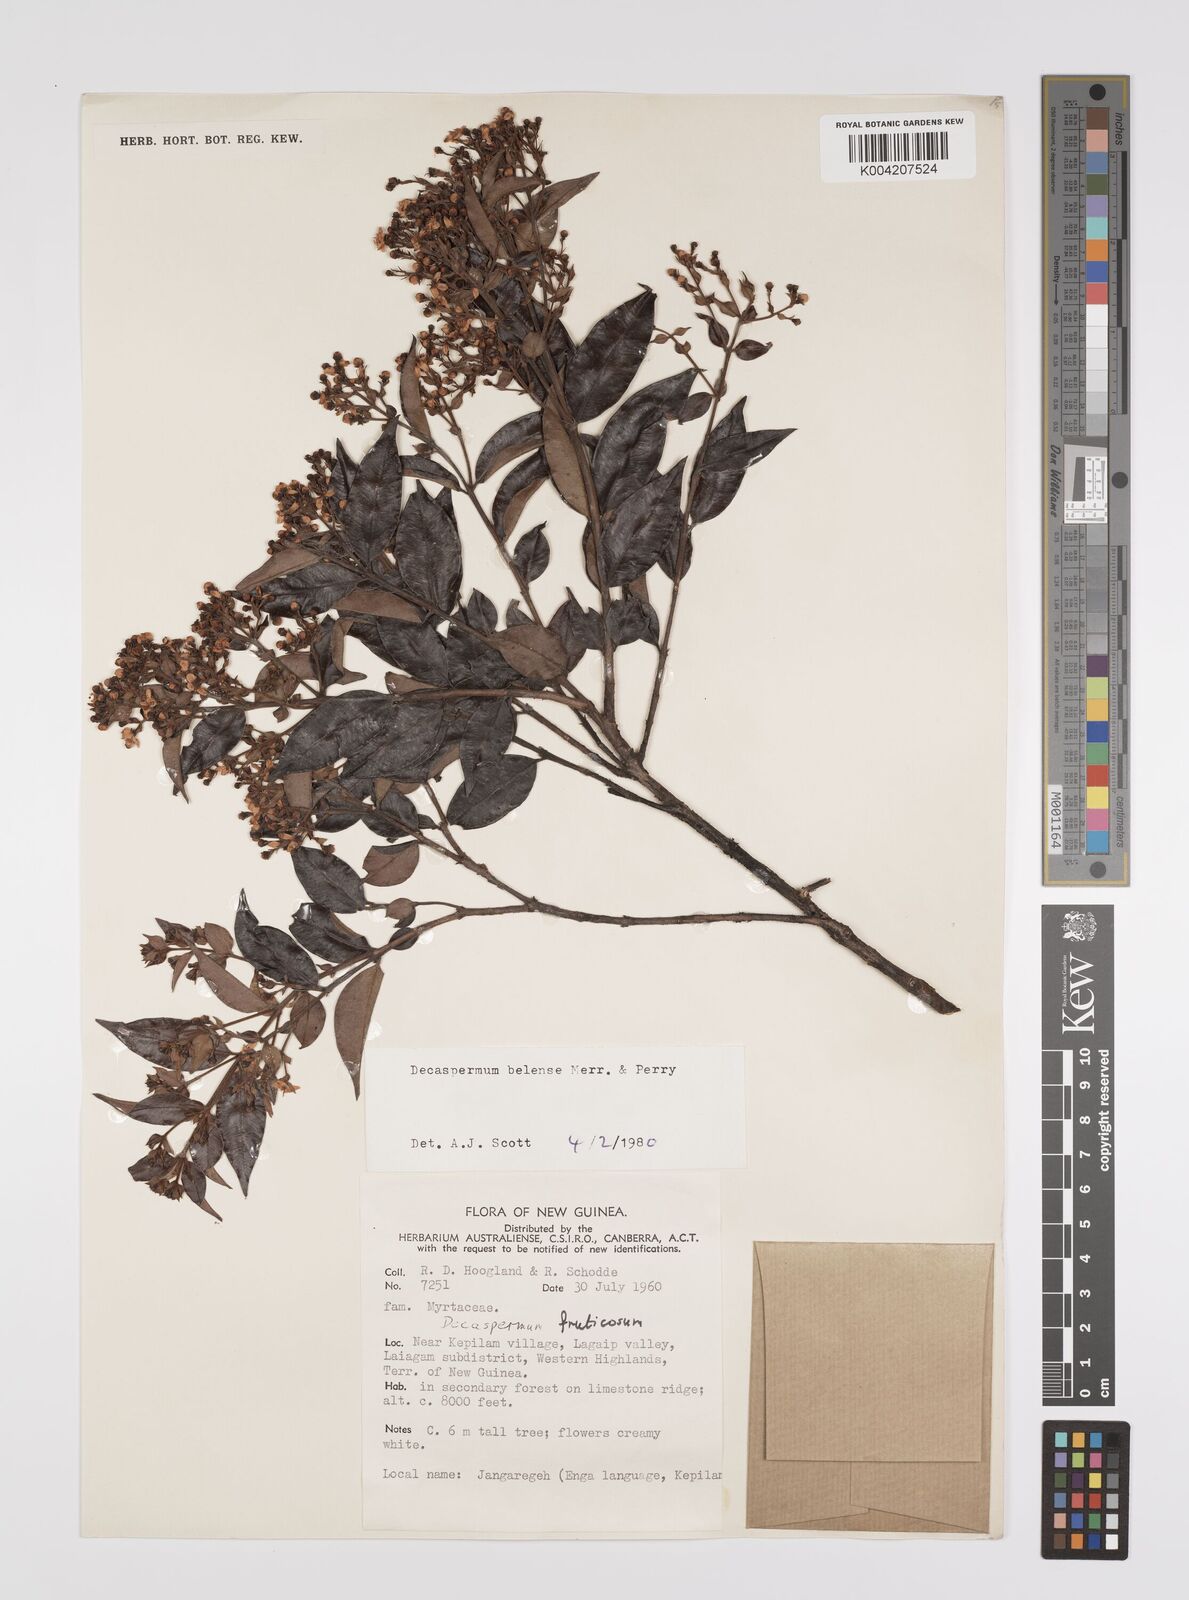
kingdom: Plantae
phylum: Tracheophyta
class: Magnoliopsida
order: Myrtales
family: Myrtaceae
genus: Decaspermum
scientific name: Decaspermum belense
